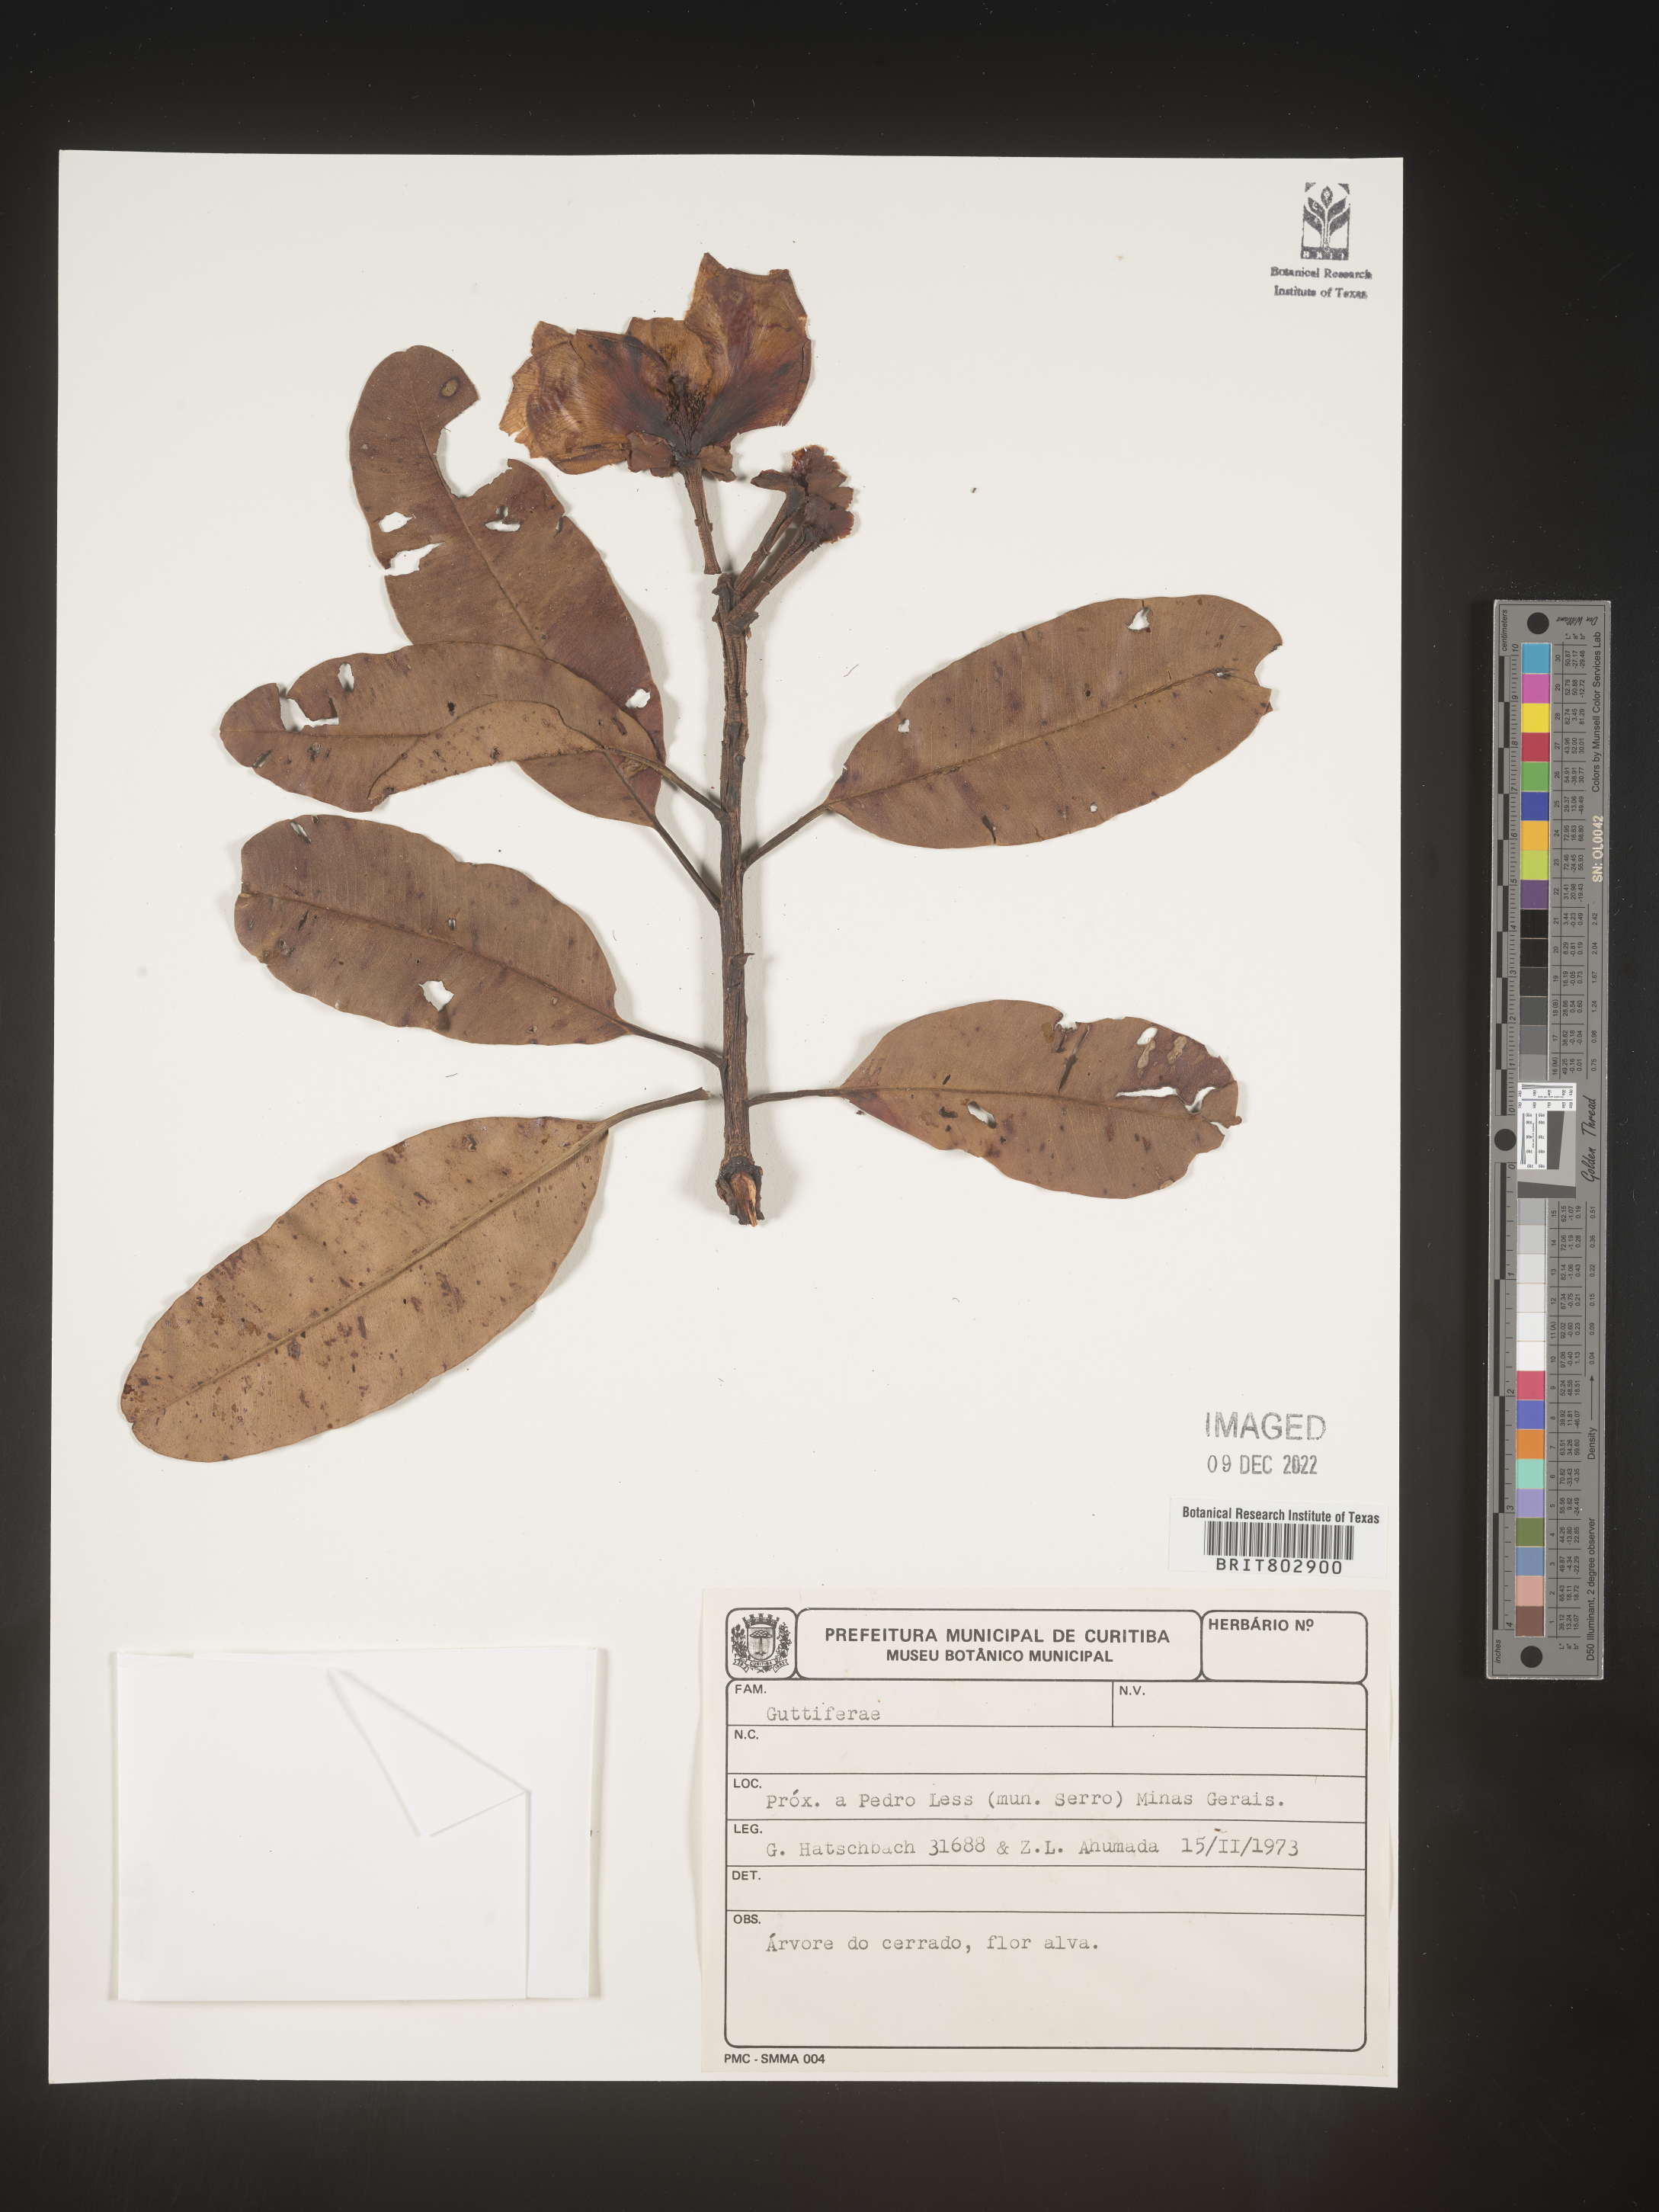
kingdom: Plantae
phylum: Tracheophyta
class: Magnoliopsida
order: Malpighiales
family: Calophyllaceae
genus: Kielmeyera
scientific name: Kielmeyera
